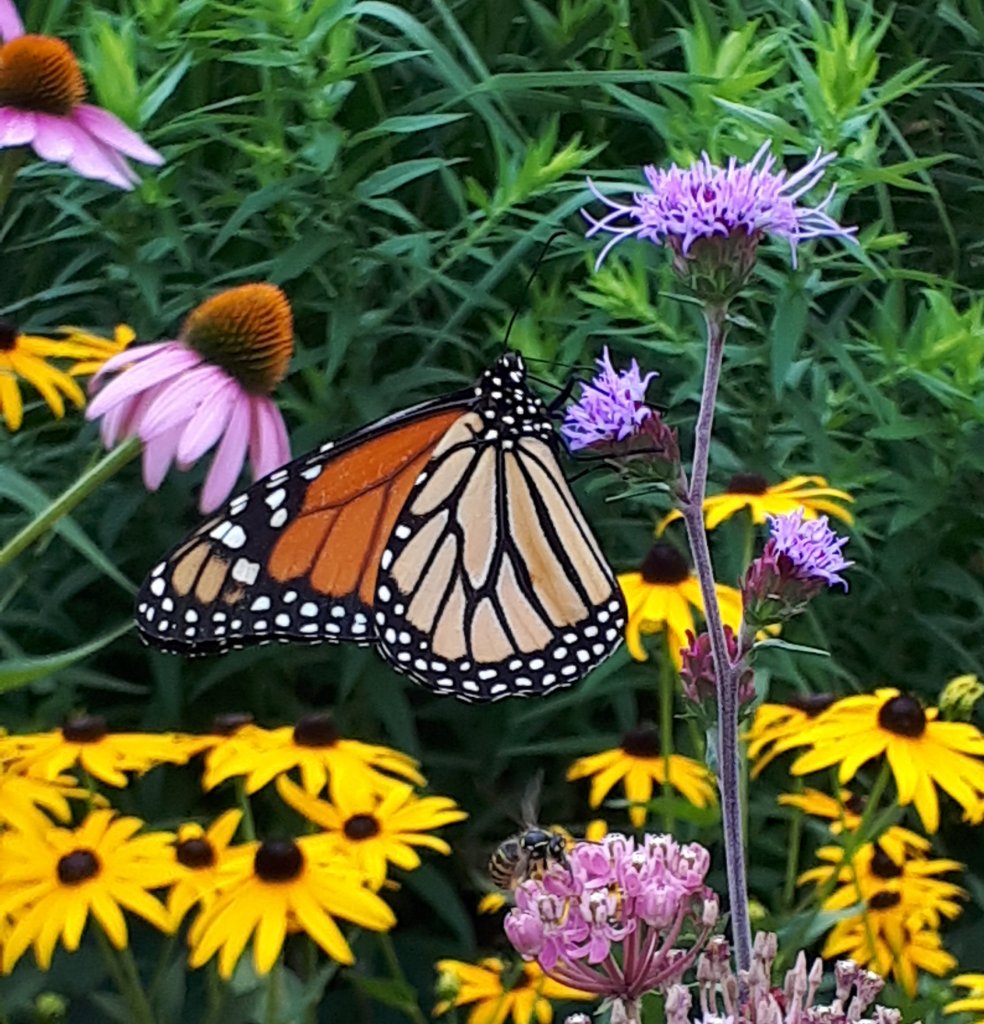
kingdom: Animalia
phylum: Arthropoda
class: Insecta
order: Lepidoptera
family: Nymphalidae
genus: Danaus
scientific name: Danaus plexippus
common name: Monarch
